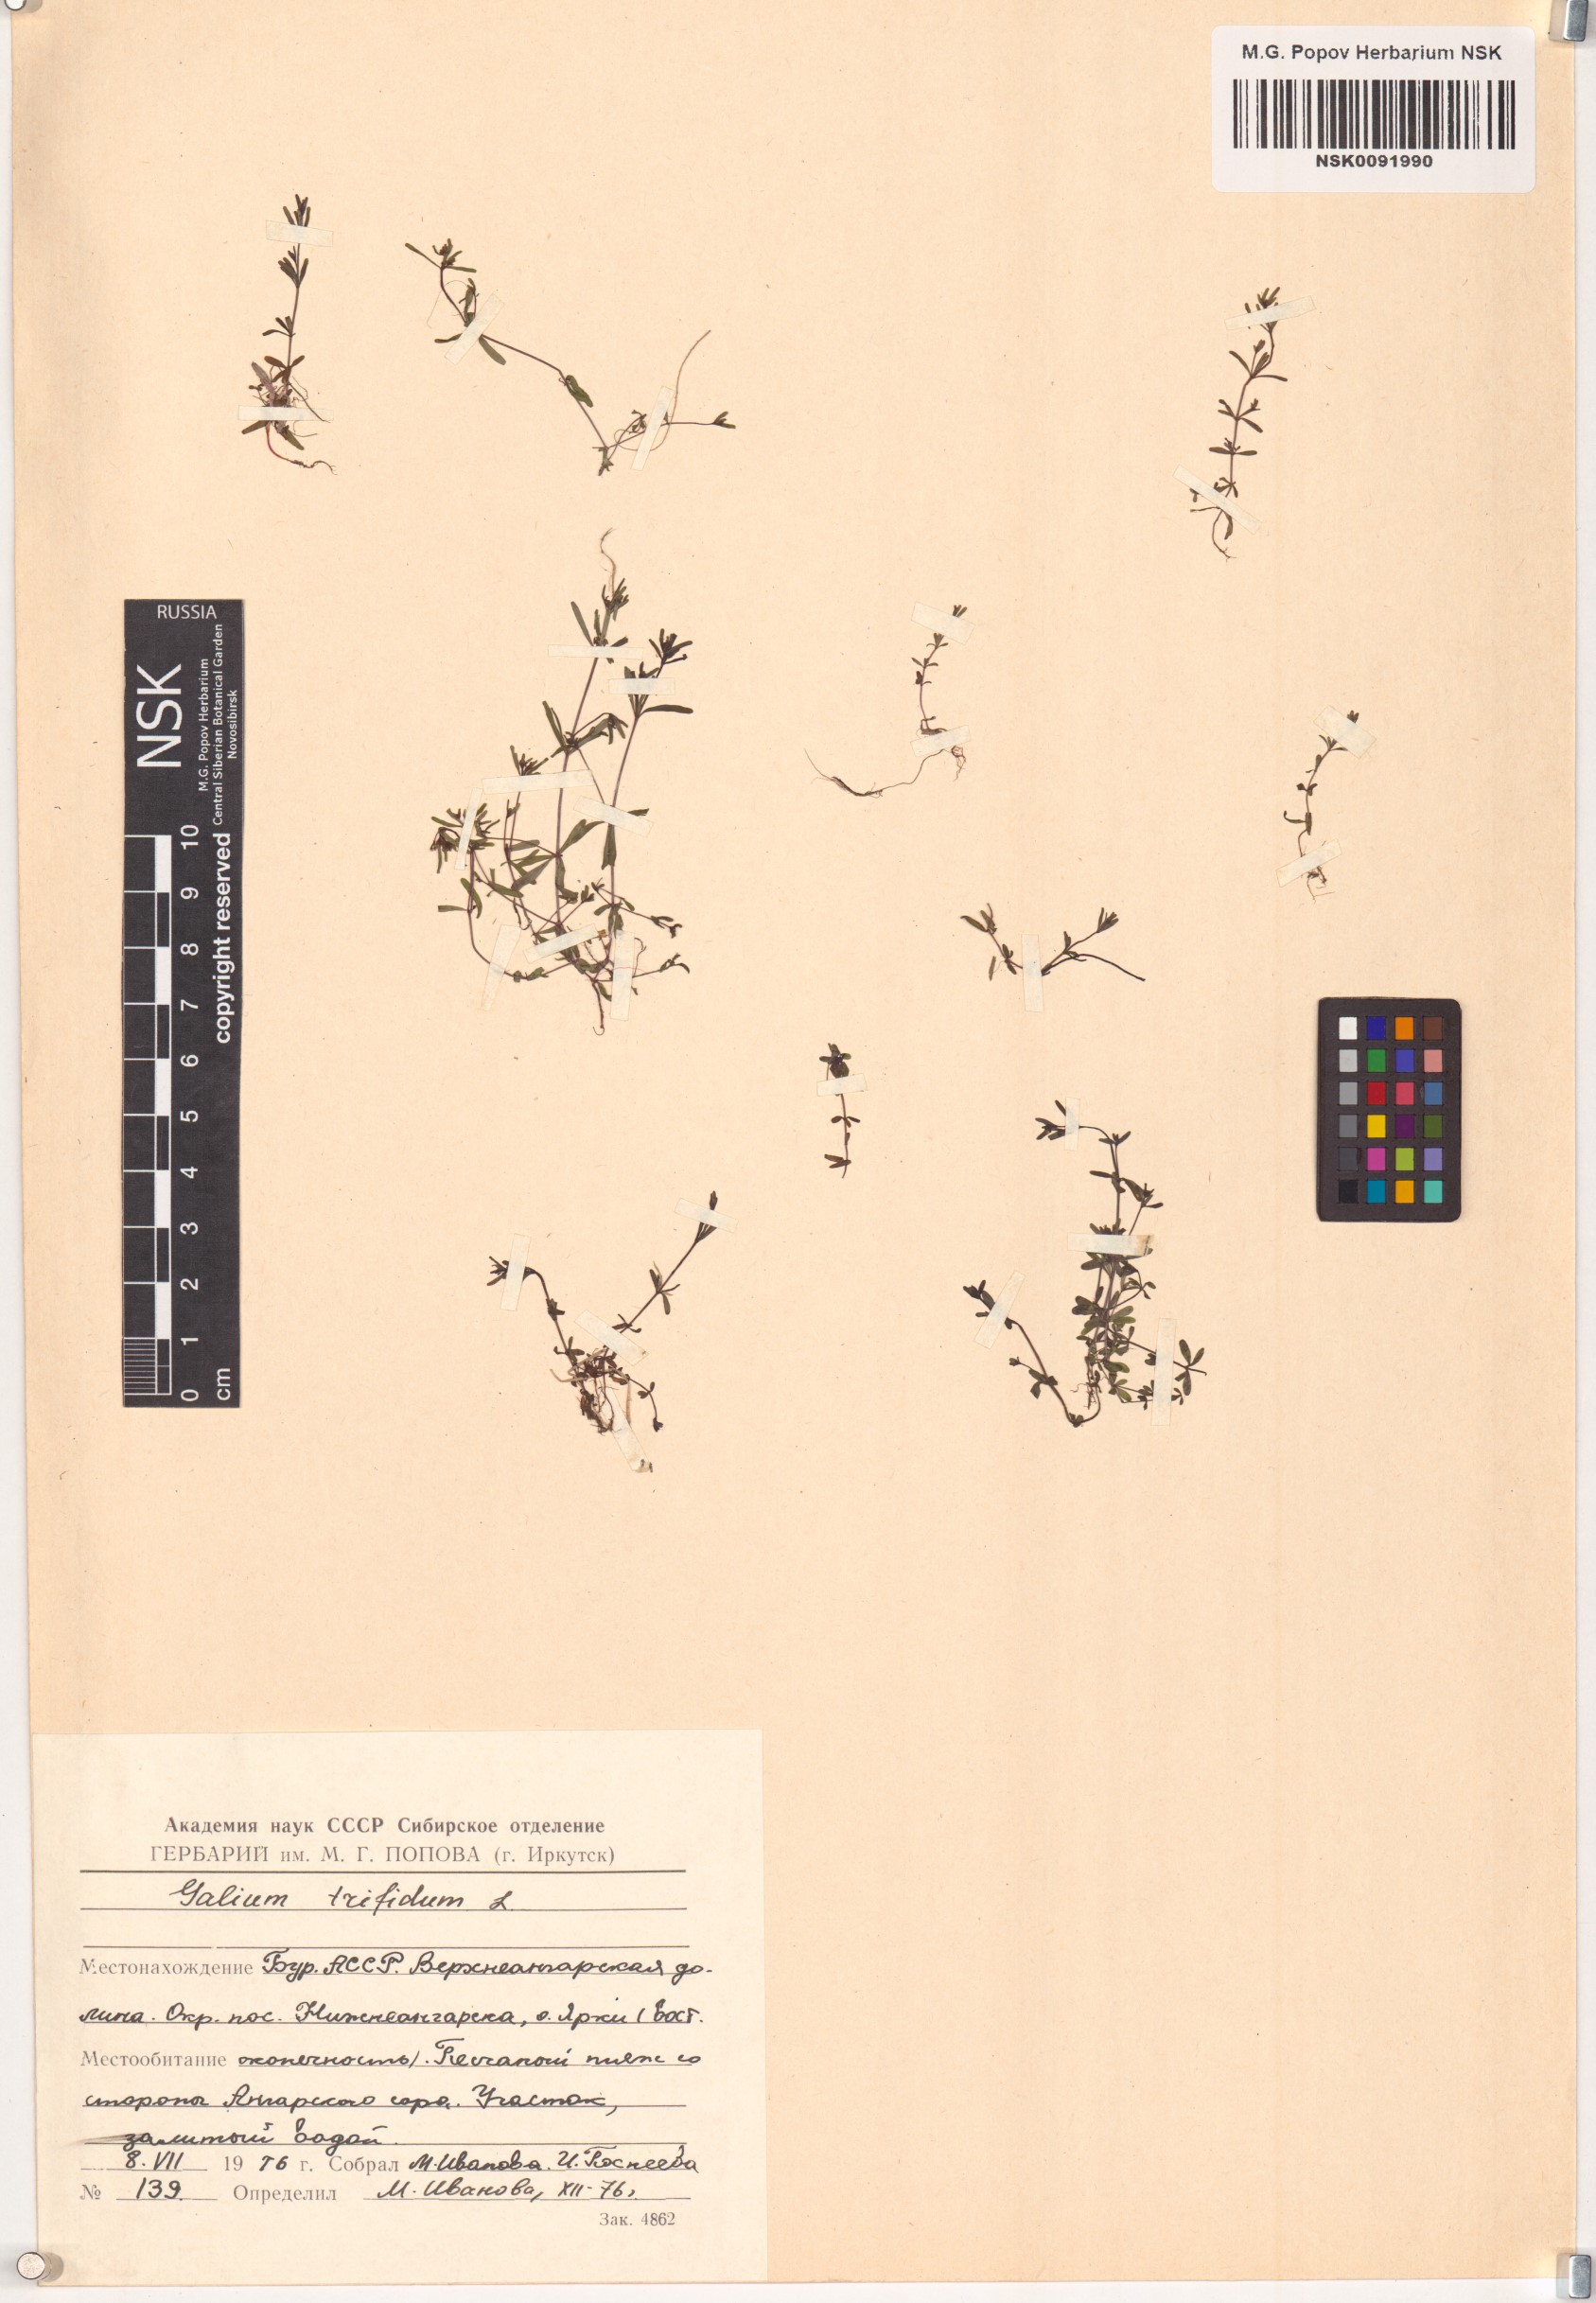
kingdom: Plantae
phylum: Tracheophyta
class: Magnoliopsida
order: Gentianales
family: Rubiaceae
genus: Galium
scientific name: Galium trifidum
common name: Small bedstraw
